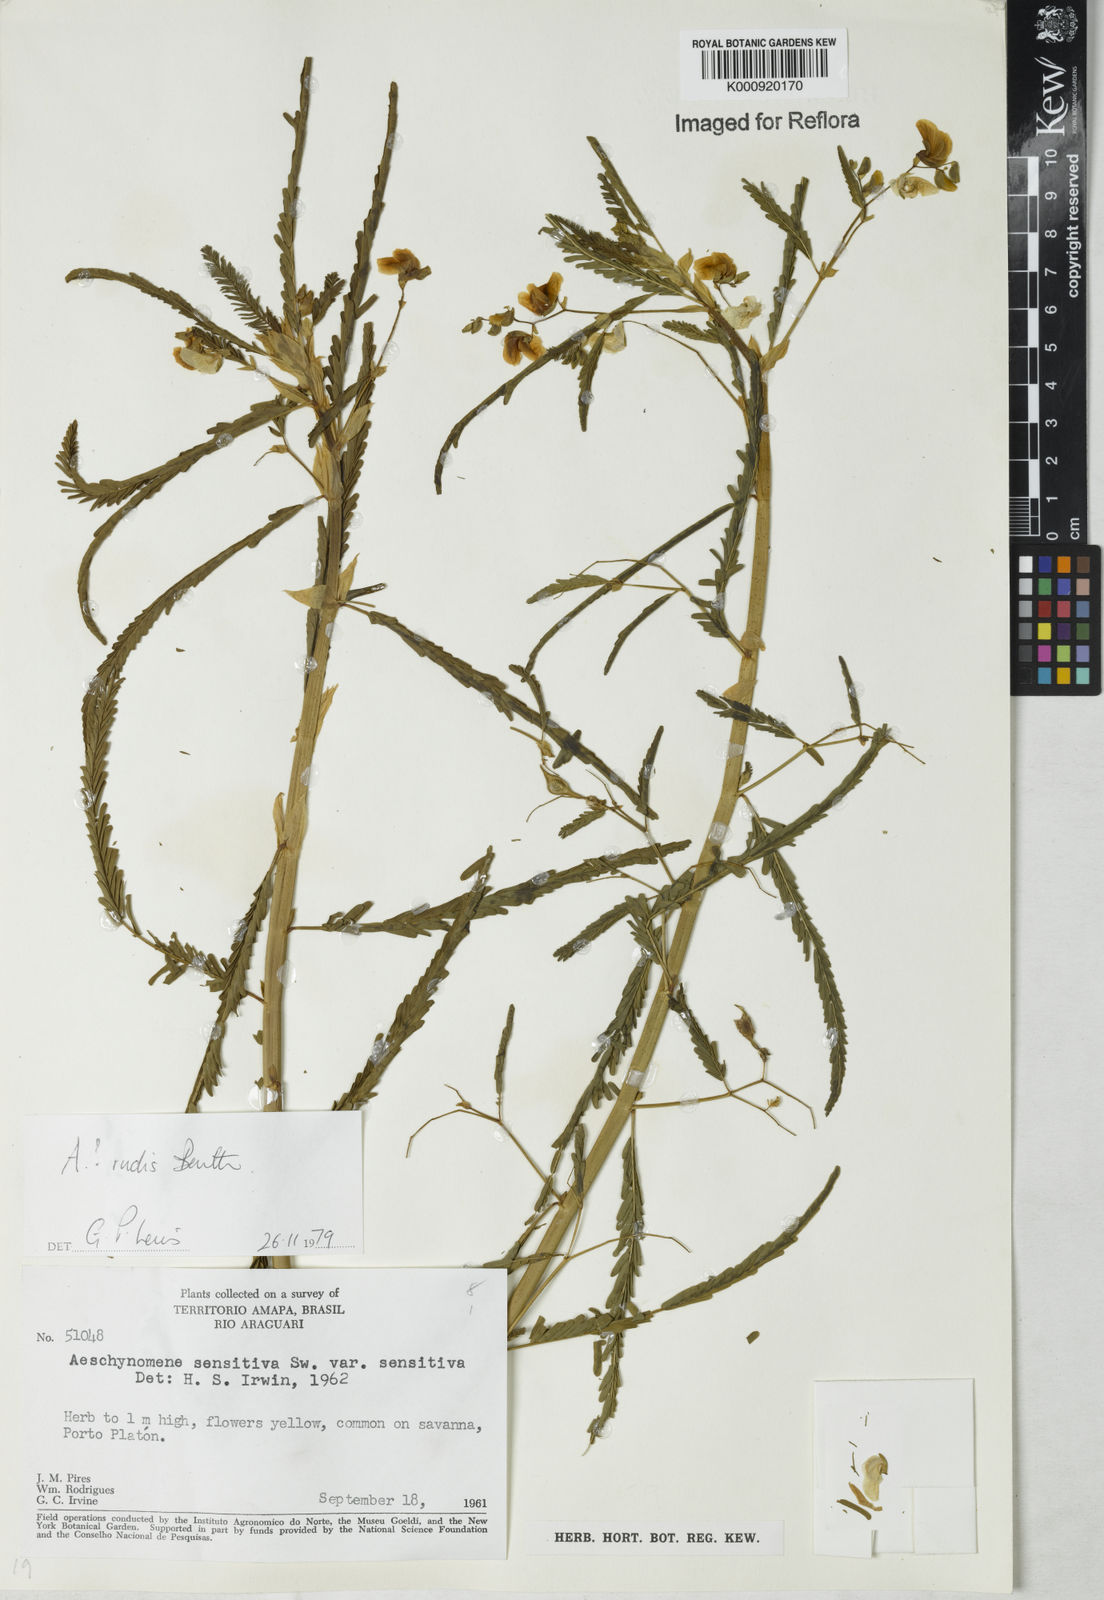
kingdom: Plantae
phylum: Tracheophyta
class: Magnoliopsida
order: Fabales
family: Fabaceae
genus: Aeschynomene
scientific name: Aeschynomene rudis
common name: Rough joint-vetch
